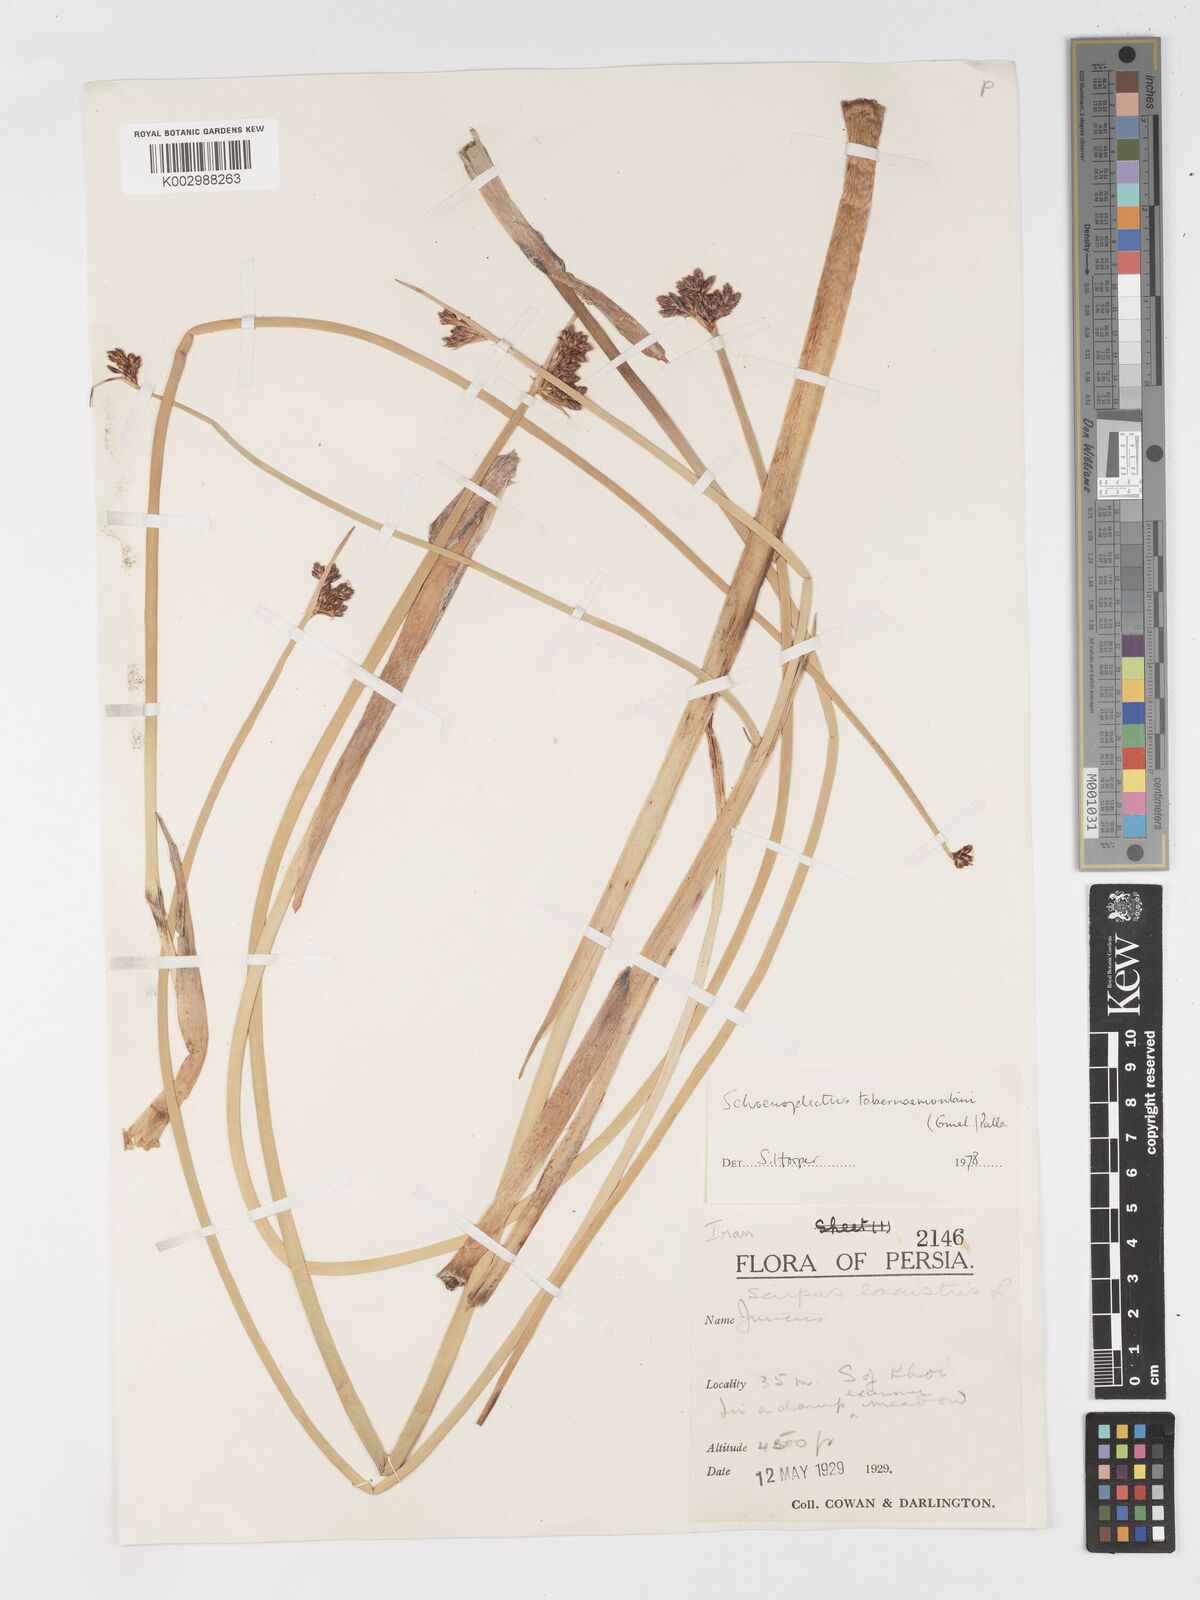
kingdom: Plantae
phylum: Tracheophyta
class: Liliopsida
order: Poales
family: Cyperaceae
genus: Schoenoplectus
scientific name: Schoenoplectus tabernaemontani
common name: Grey club-rush
